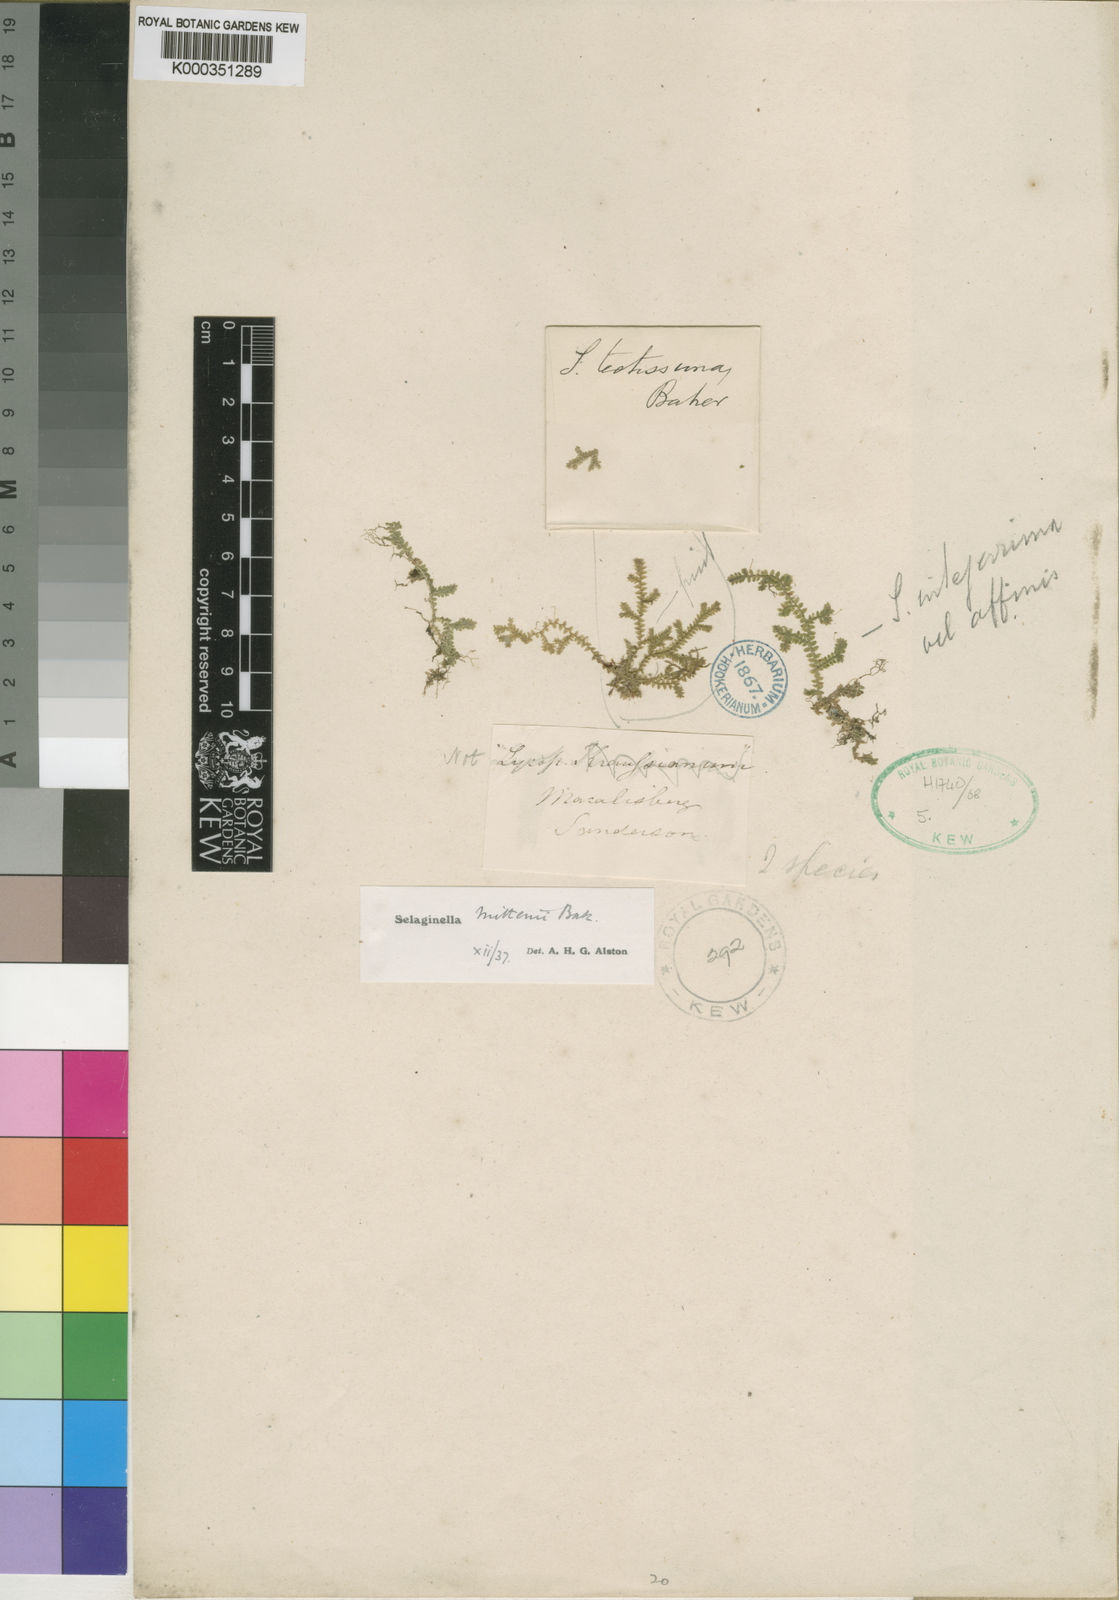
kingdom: Plantae
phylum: Tracheophyta
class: Lycopodiopsida
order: Selaginellales
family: Selaginellaceae
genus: Selaginella
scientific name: Selaginella mittenii
